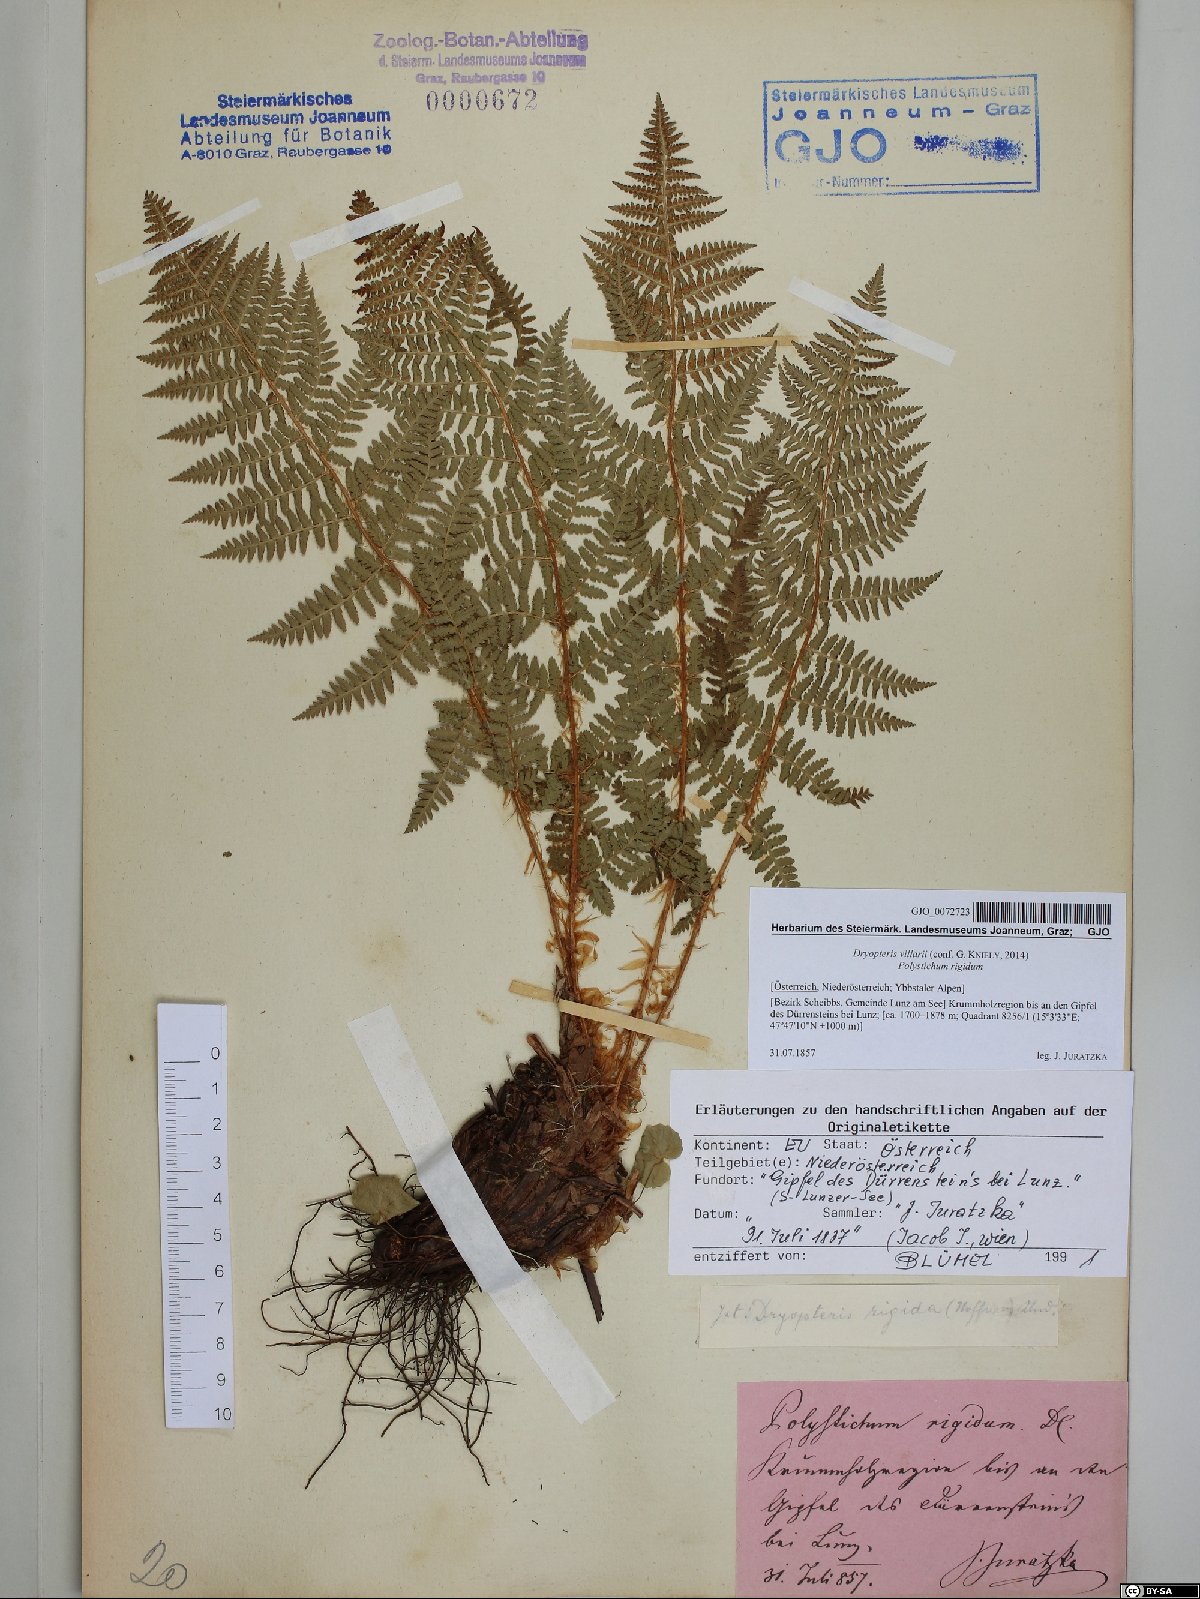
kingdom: Plantae
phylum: Tracheophyta
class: Polypodiopsida
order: Polypodiales
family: Dryopteridaceae
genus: Dryopteris
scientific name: Dryopteris villarii
